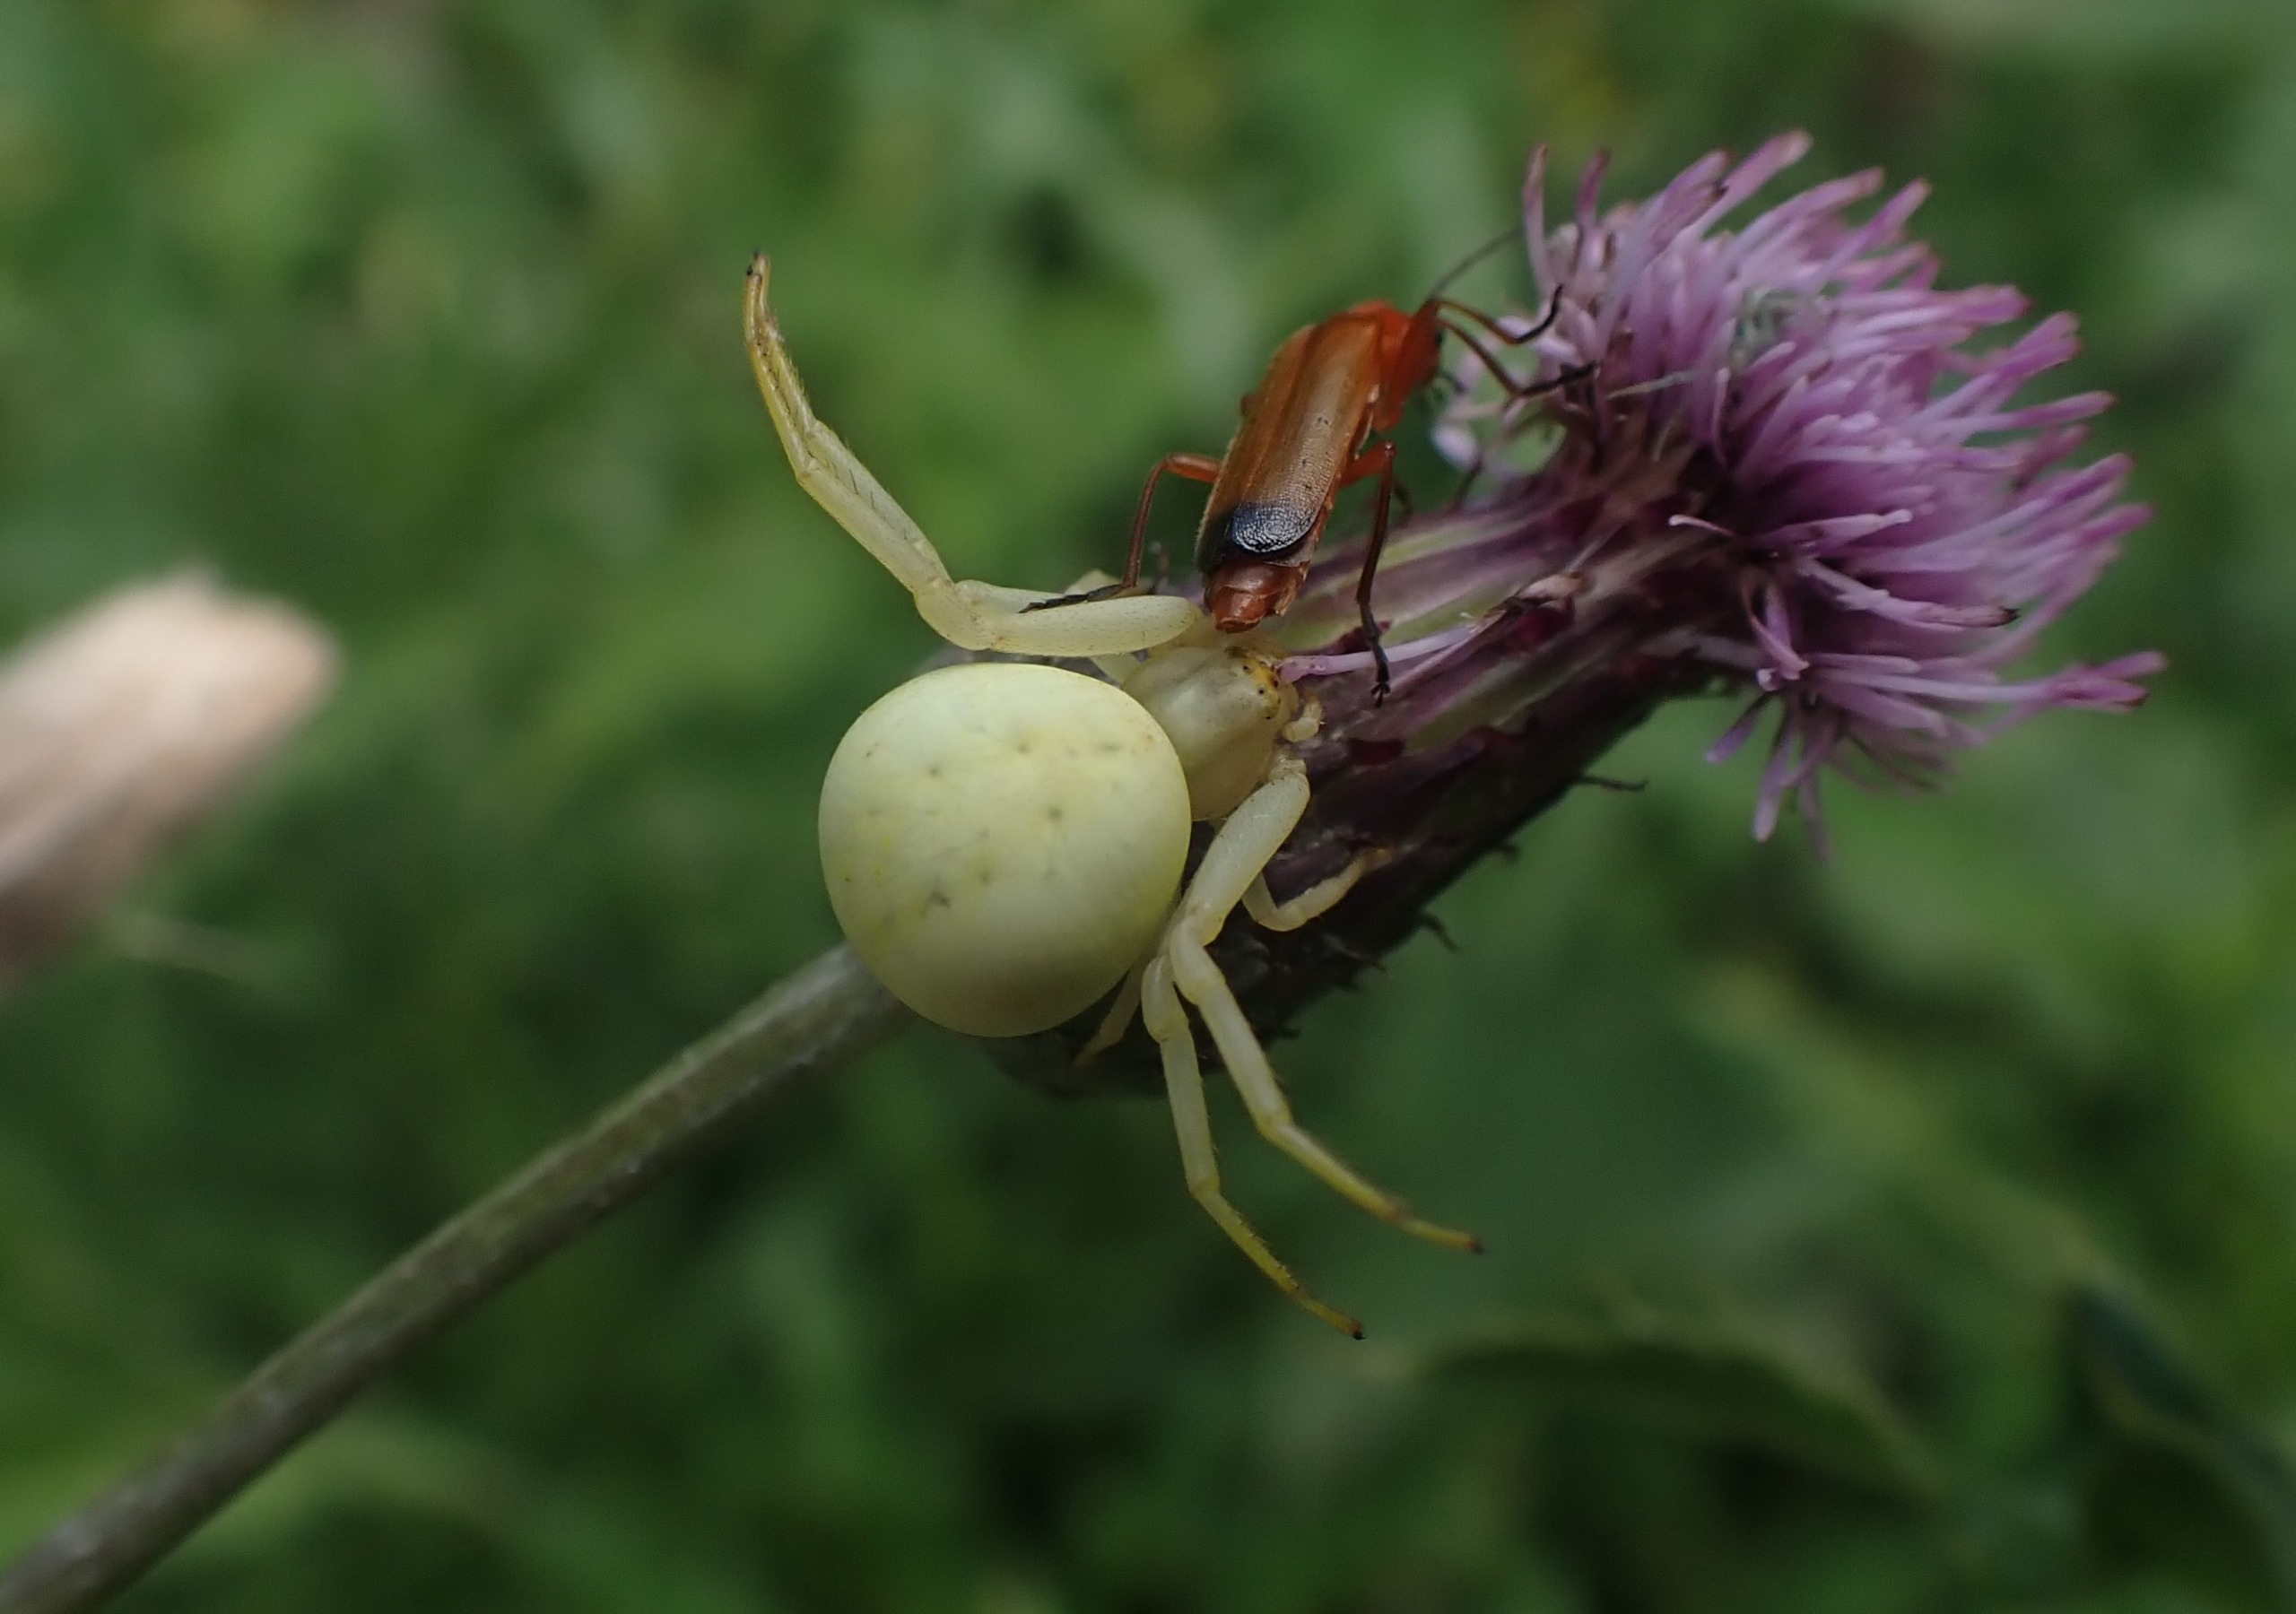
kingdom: Animalia
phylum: Arthropoda
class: Arachnida
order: Araneae
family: Thomisidae
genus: Misumena
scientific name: Misumena vatia
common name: Kamæleonedderkop
